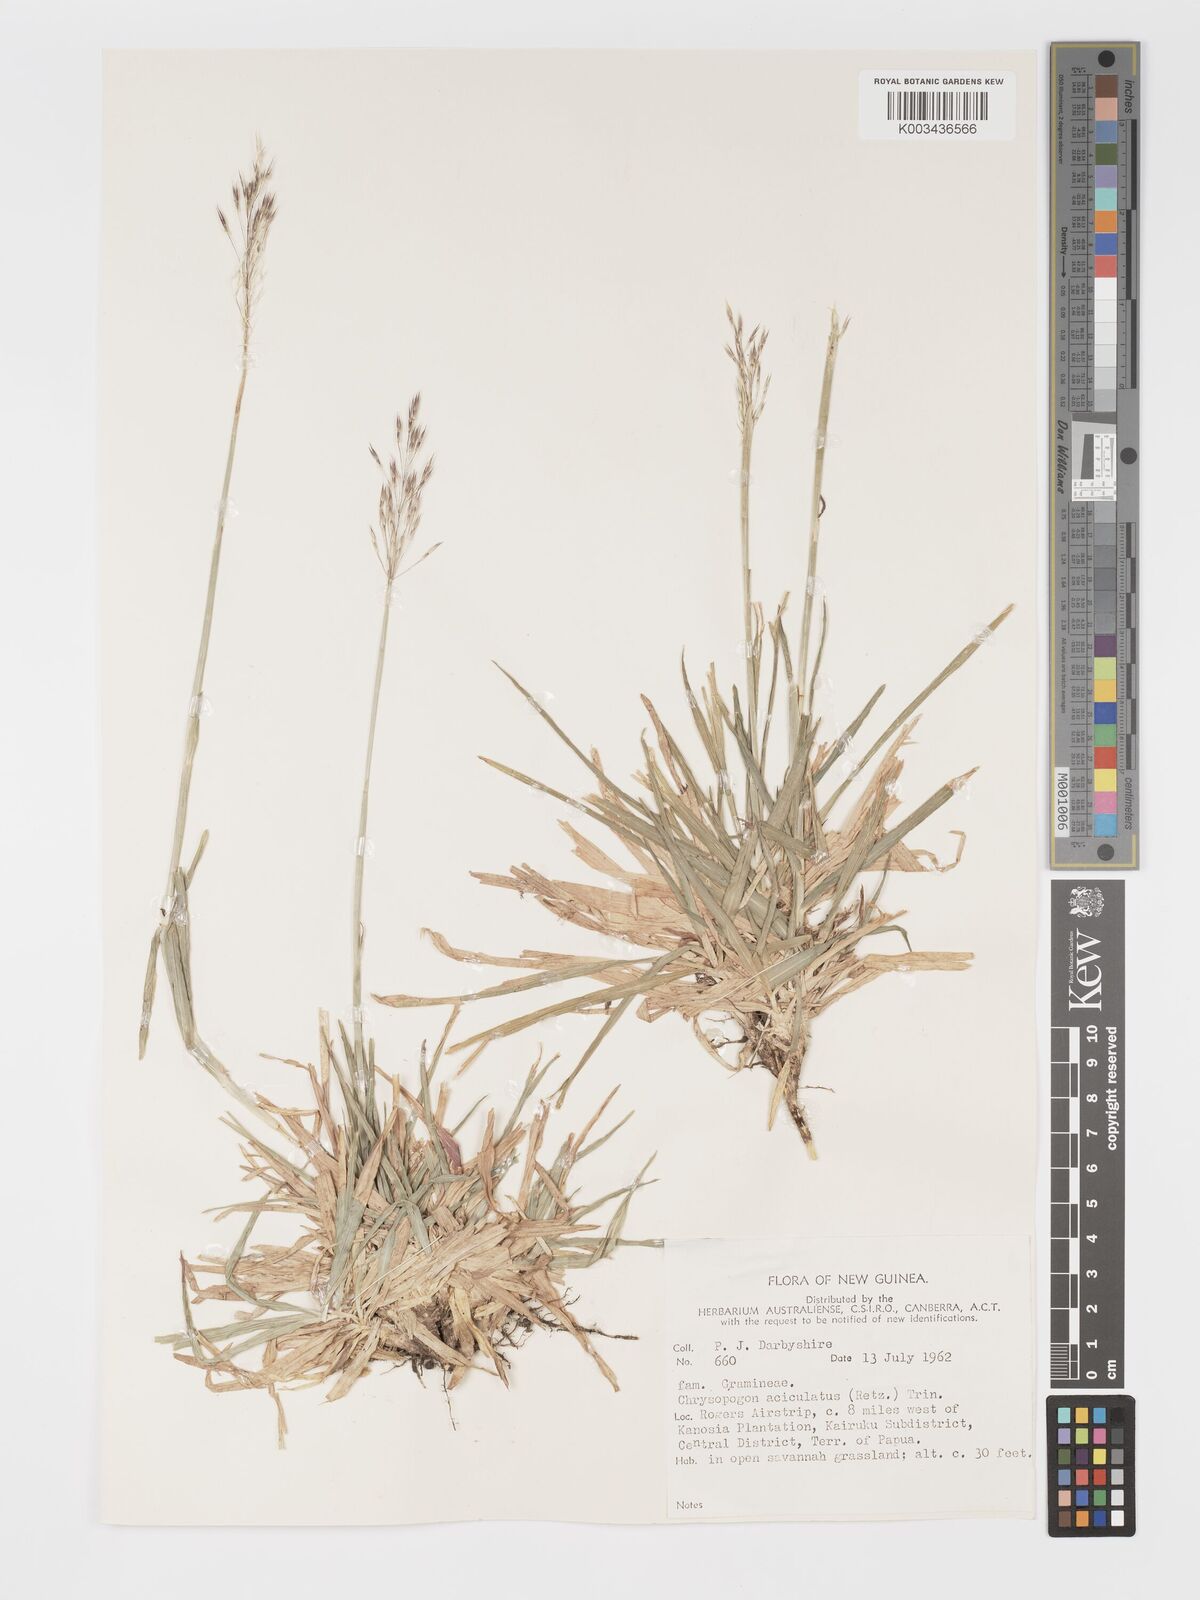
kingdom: Plantae
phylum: Tracheophyta
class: Liliopsida
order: Poales
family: Poaceae
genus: Chrysopogon
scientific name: Chrysopogon aciculatus
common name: Pilipiliula
